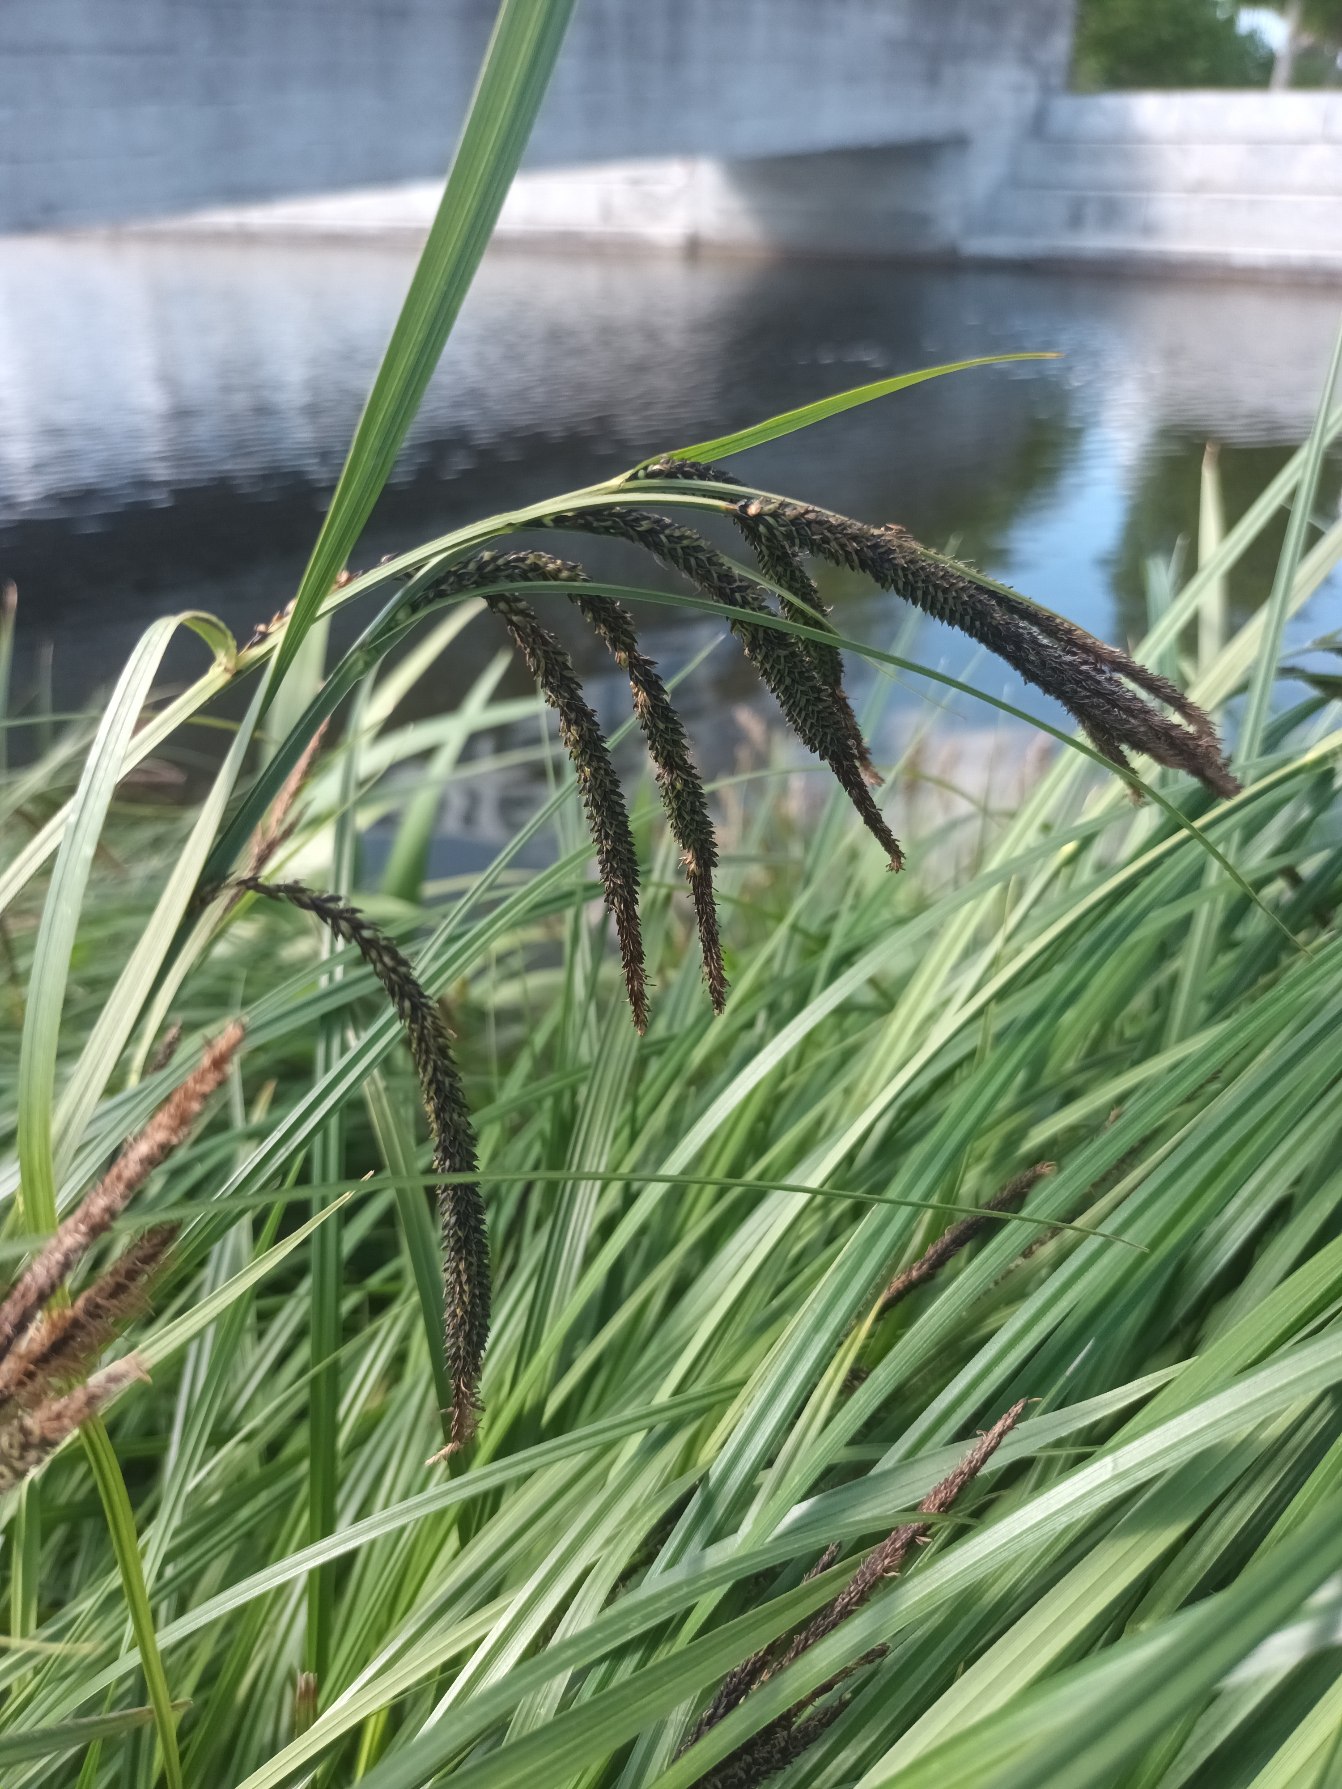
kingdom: Plantae
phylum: Tracheophyta
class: Liliopsida
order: Poales
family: Cyperaceae
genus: Carex
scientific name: Carex acuta
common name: Nikkende star
